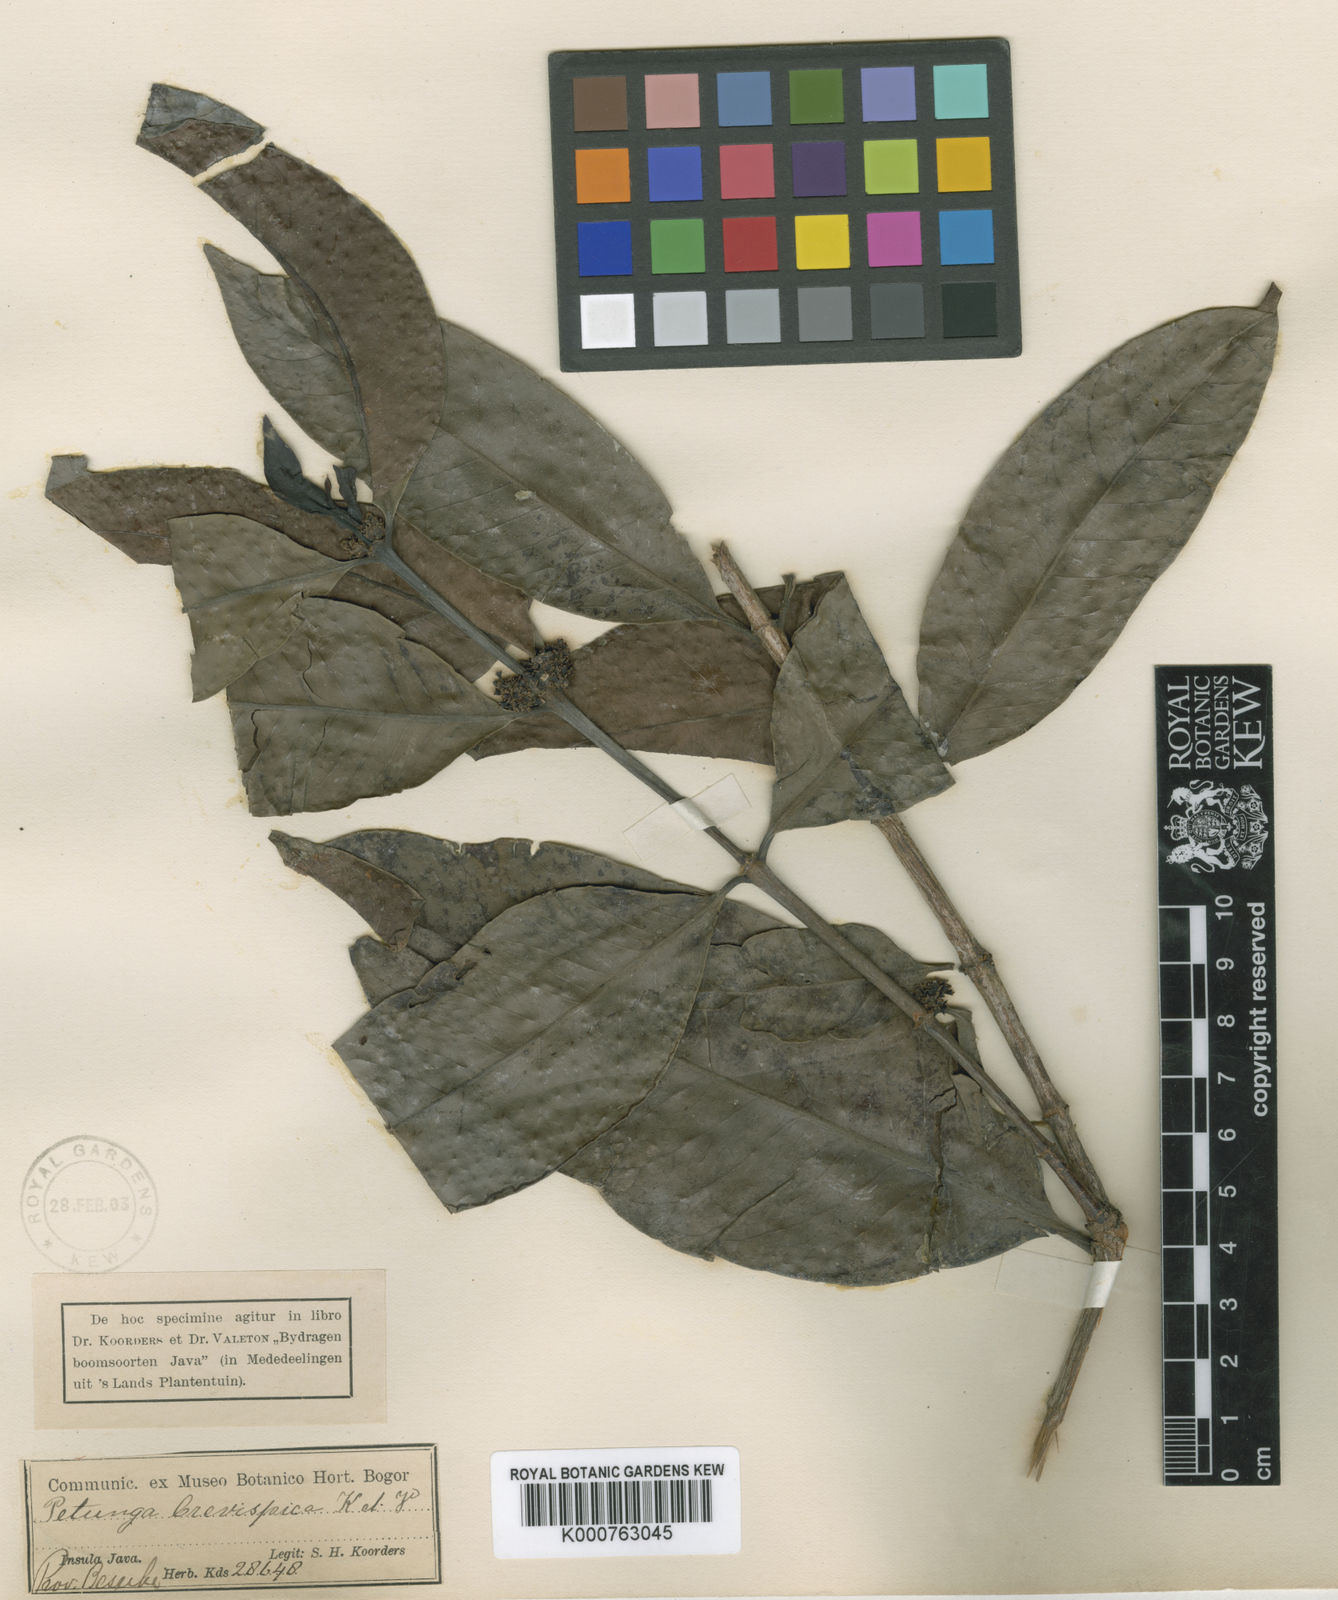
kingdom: Plantae
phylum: Tracheophyta
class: Magnoliopsida
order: Gentianales
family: Rubiaceae
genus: Hypobathrum
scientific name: Hypobathrum
